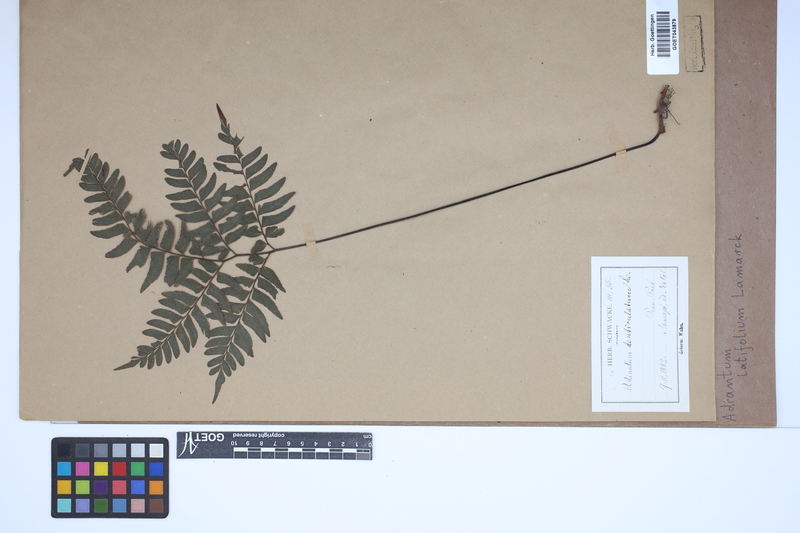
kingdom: Plantae
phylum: Tracheophyta
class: Polypodiopsida
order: Polypodiales
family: Pteridaceae
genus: Adiantum
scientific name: Adiantum latifolium
